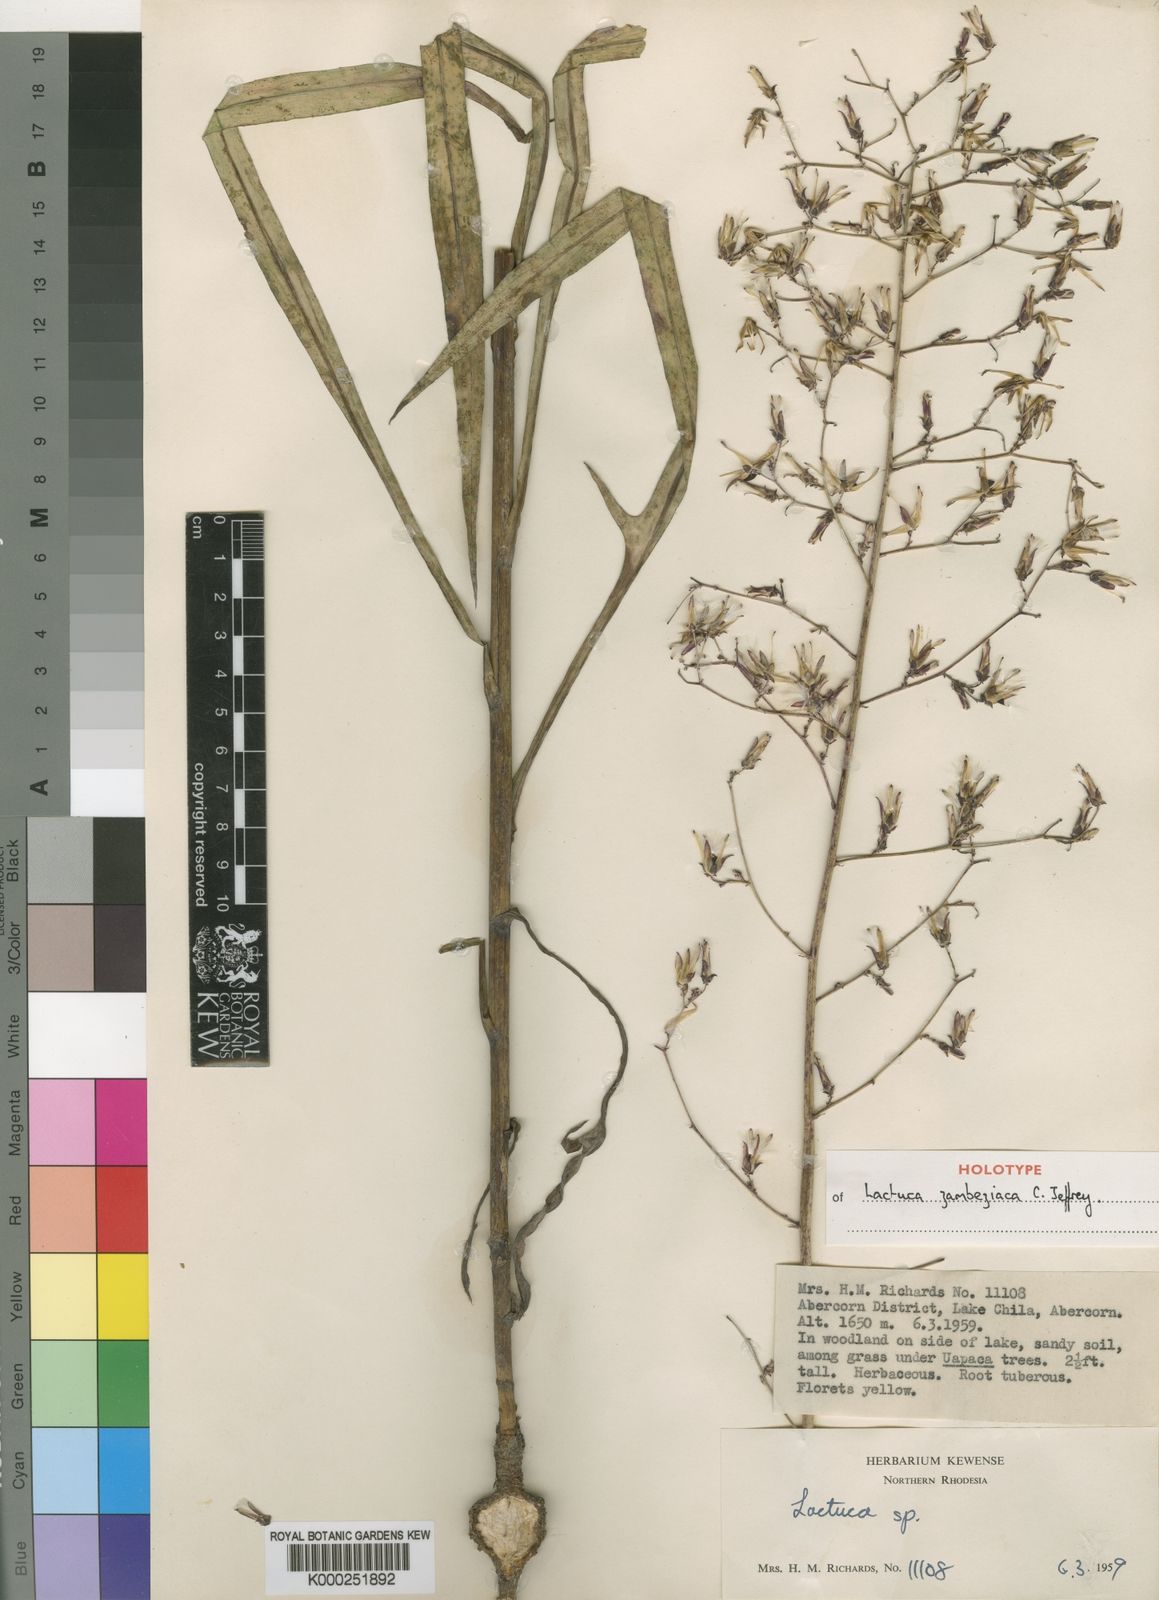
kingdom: Plantae
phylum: Tracheophyta
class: Magnoliopsida
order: Asterales
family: Asteraceae
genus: Lactuca
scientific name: Lactuca zambeziaca
